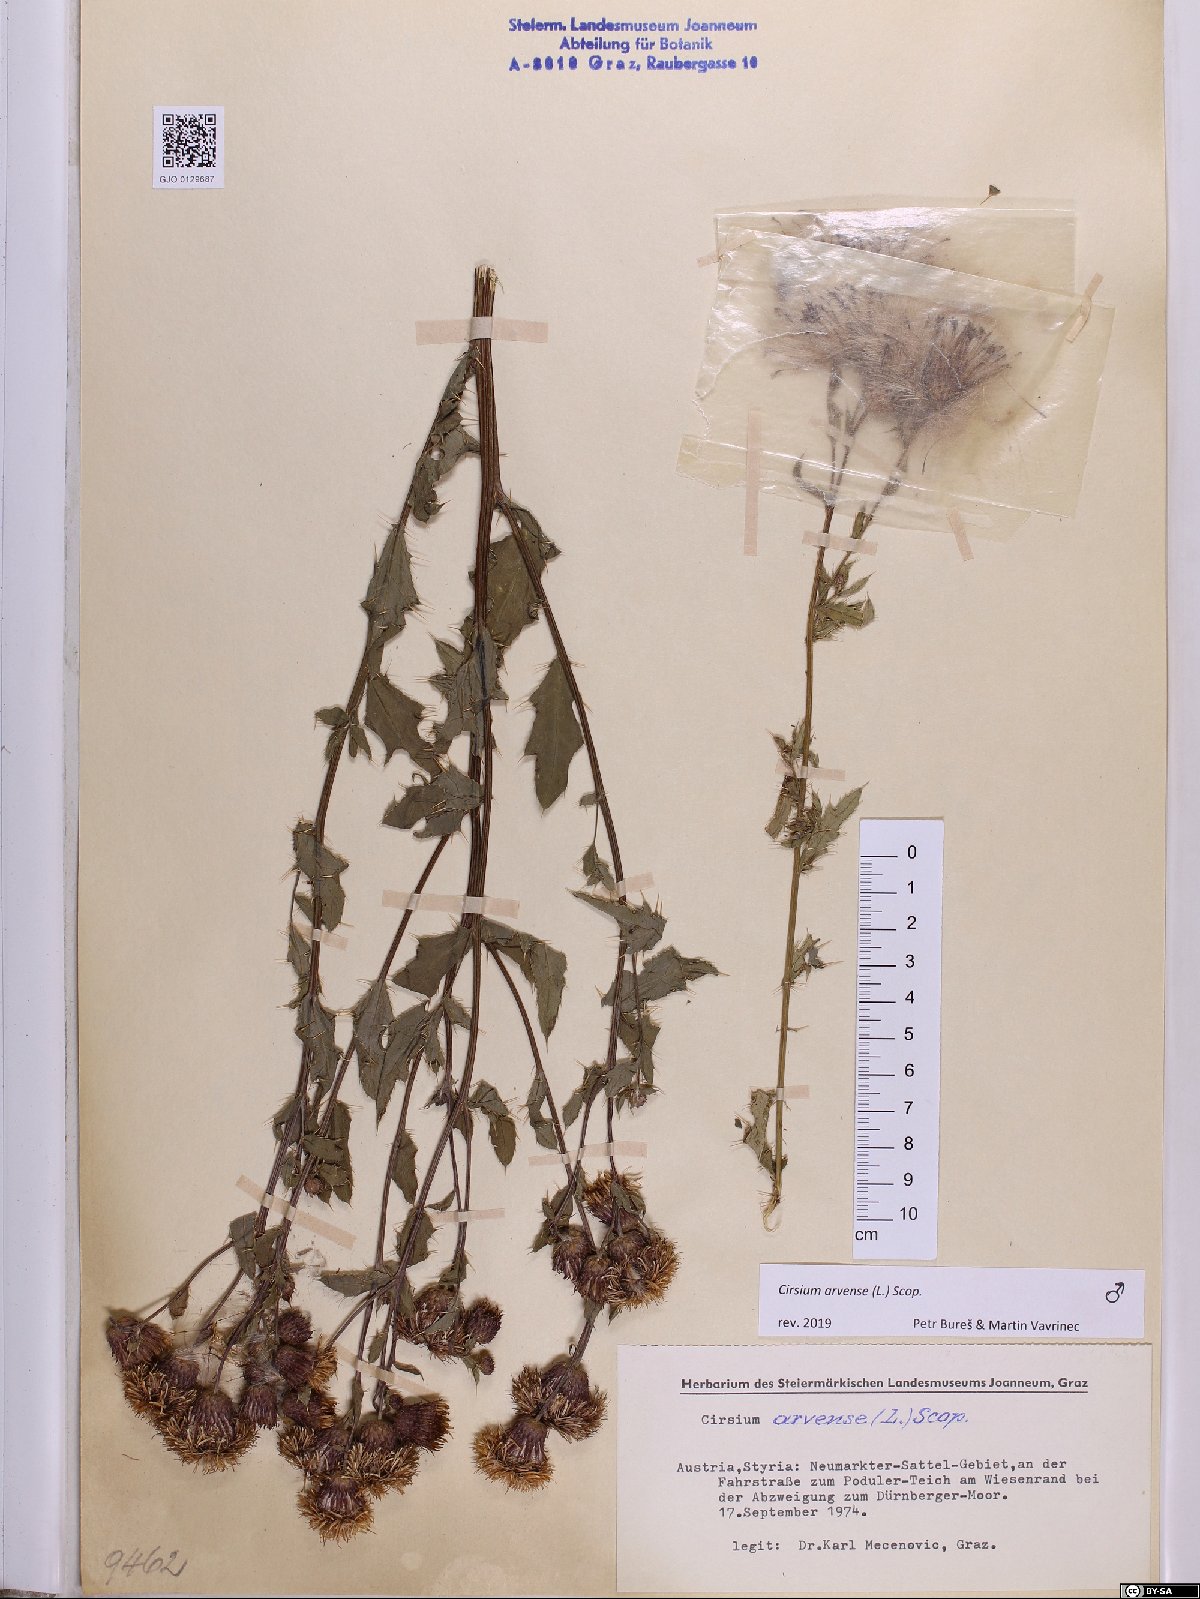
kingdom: Plantae
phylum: Tracheophyta
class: Magnoliopsida
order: Asterales
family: Asteraceae
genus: Cirsium
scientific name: Cirsium arvense
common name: Creeping thistle
